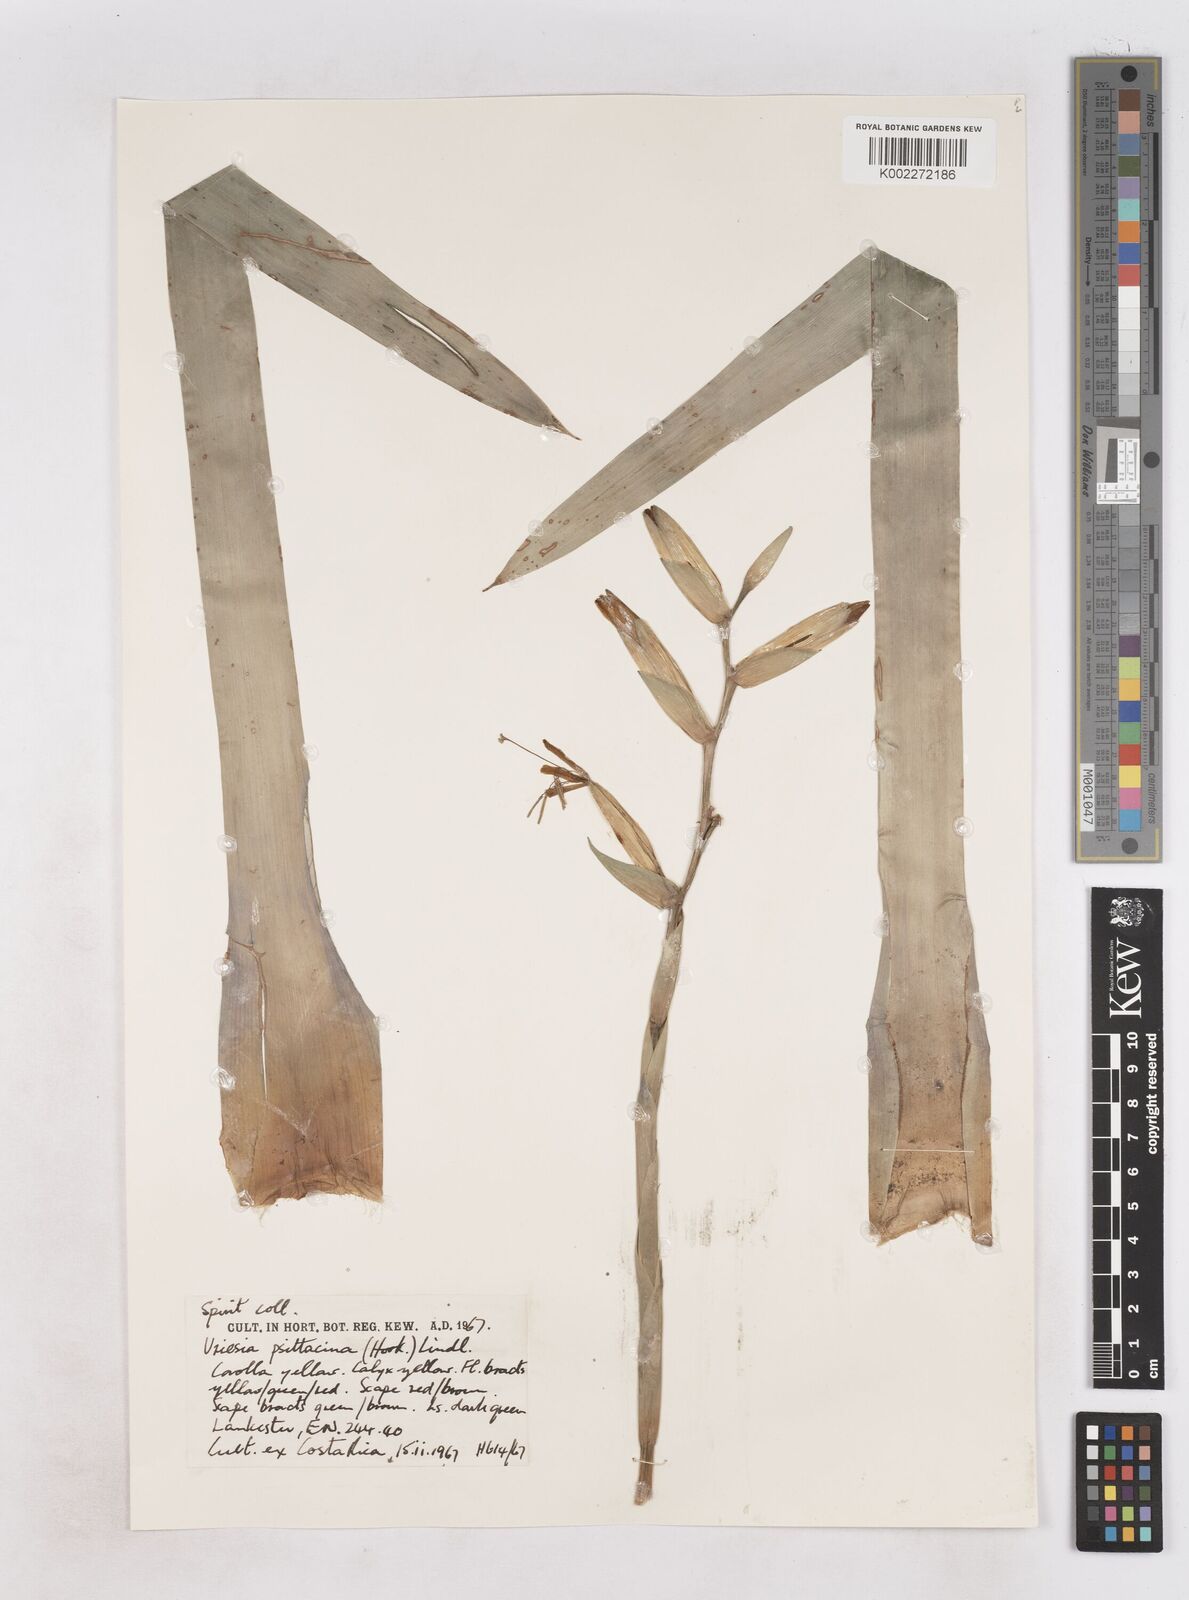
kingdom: Plantae
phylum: Tracheophyta
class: Liliopsida
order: Poales
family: Bromeliaceae
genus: Vriesea
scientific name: Vriesea psittacina
